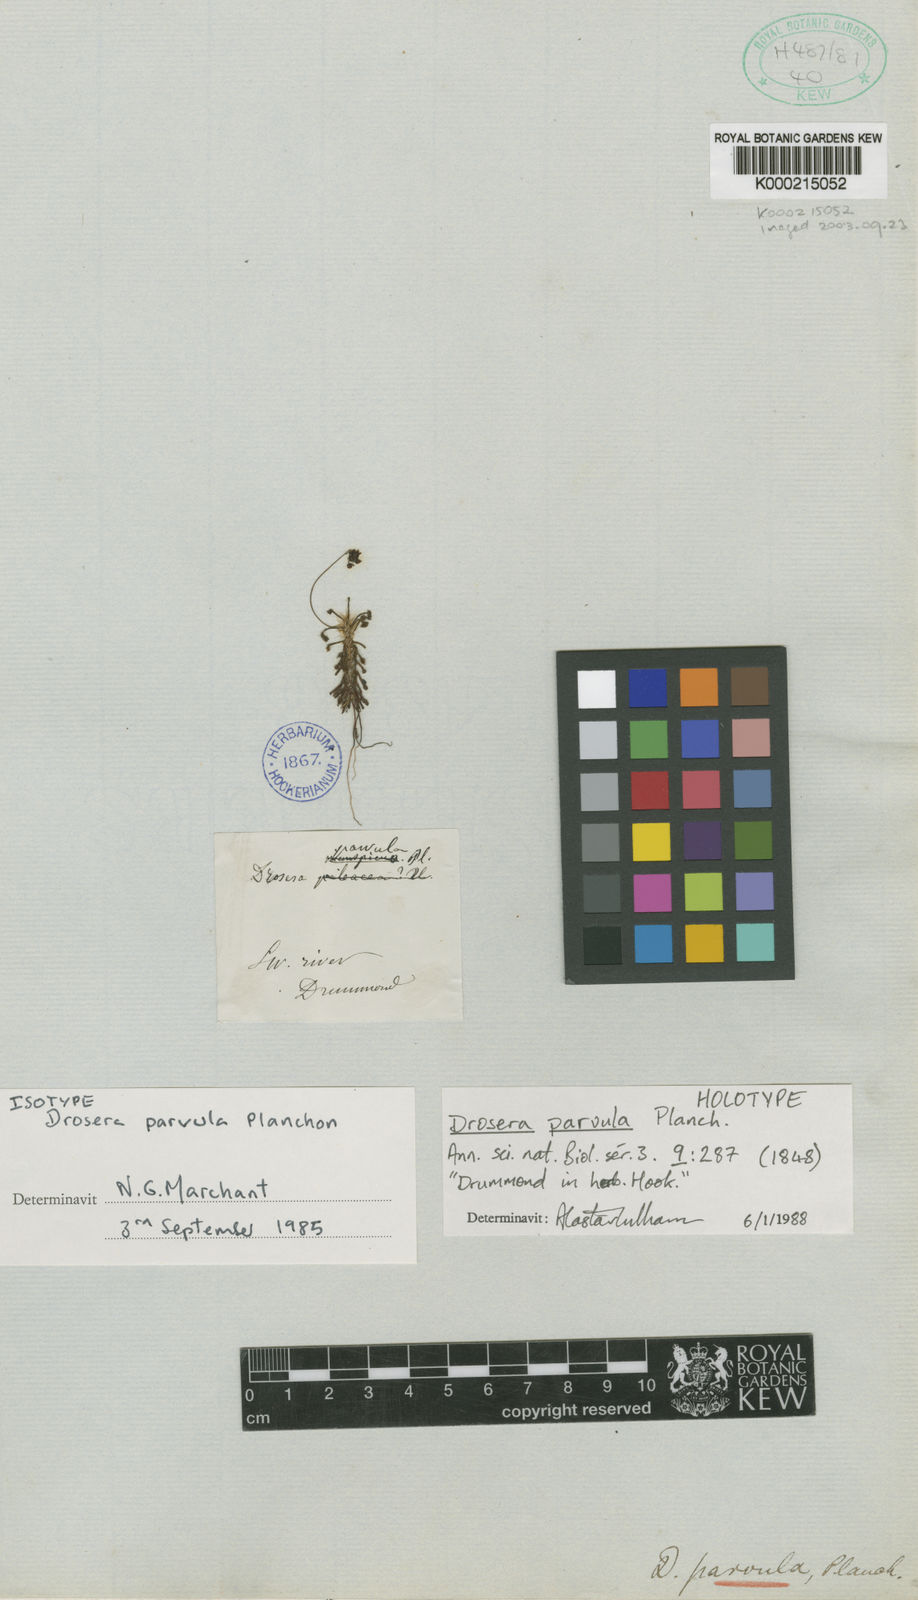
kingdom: Plantae
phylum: Tracheophyta
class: Magnoliopsida
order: Caryophyllales
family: Droseraceae
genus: Drosera
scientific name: Drosera parvula
